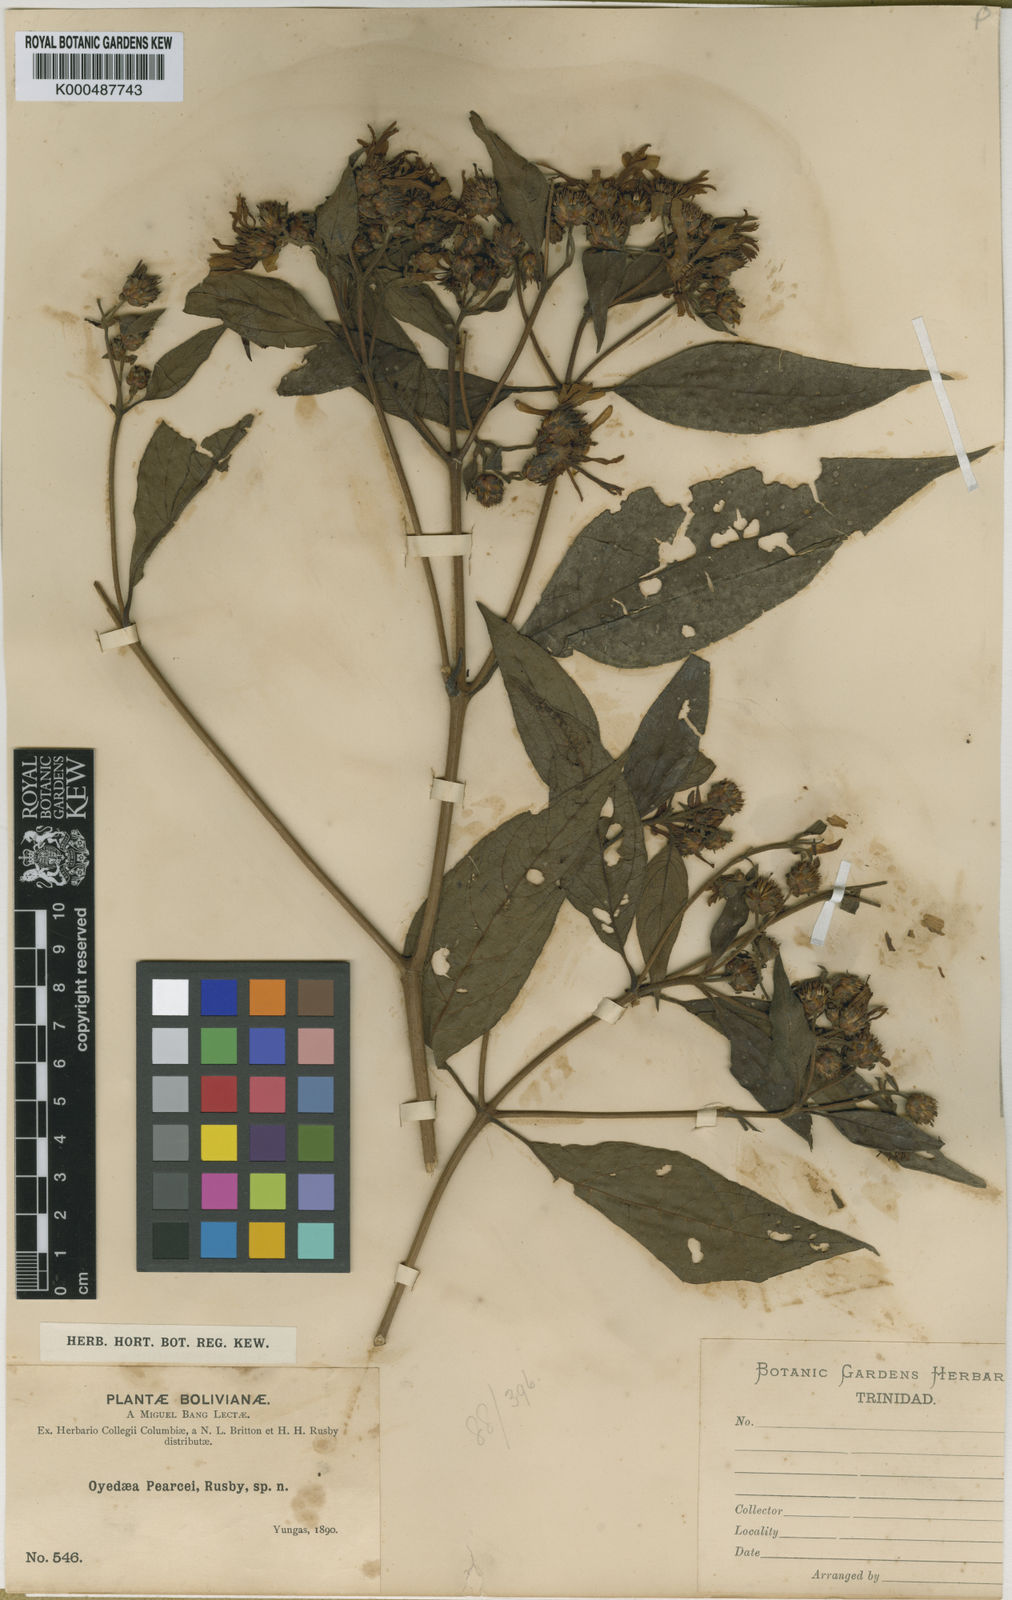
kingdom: Plantae
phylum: Tracheophyta
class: Magnoliopsida
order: Asterales
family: Asteraceae
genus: Oyedaea
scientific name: Oyedaea boliviana
